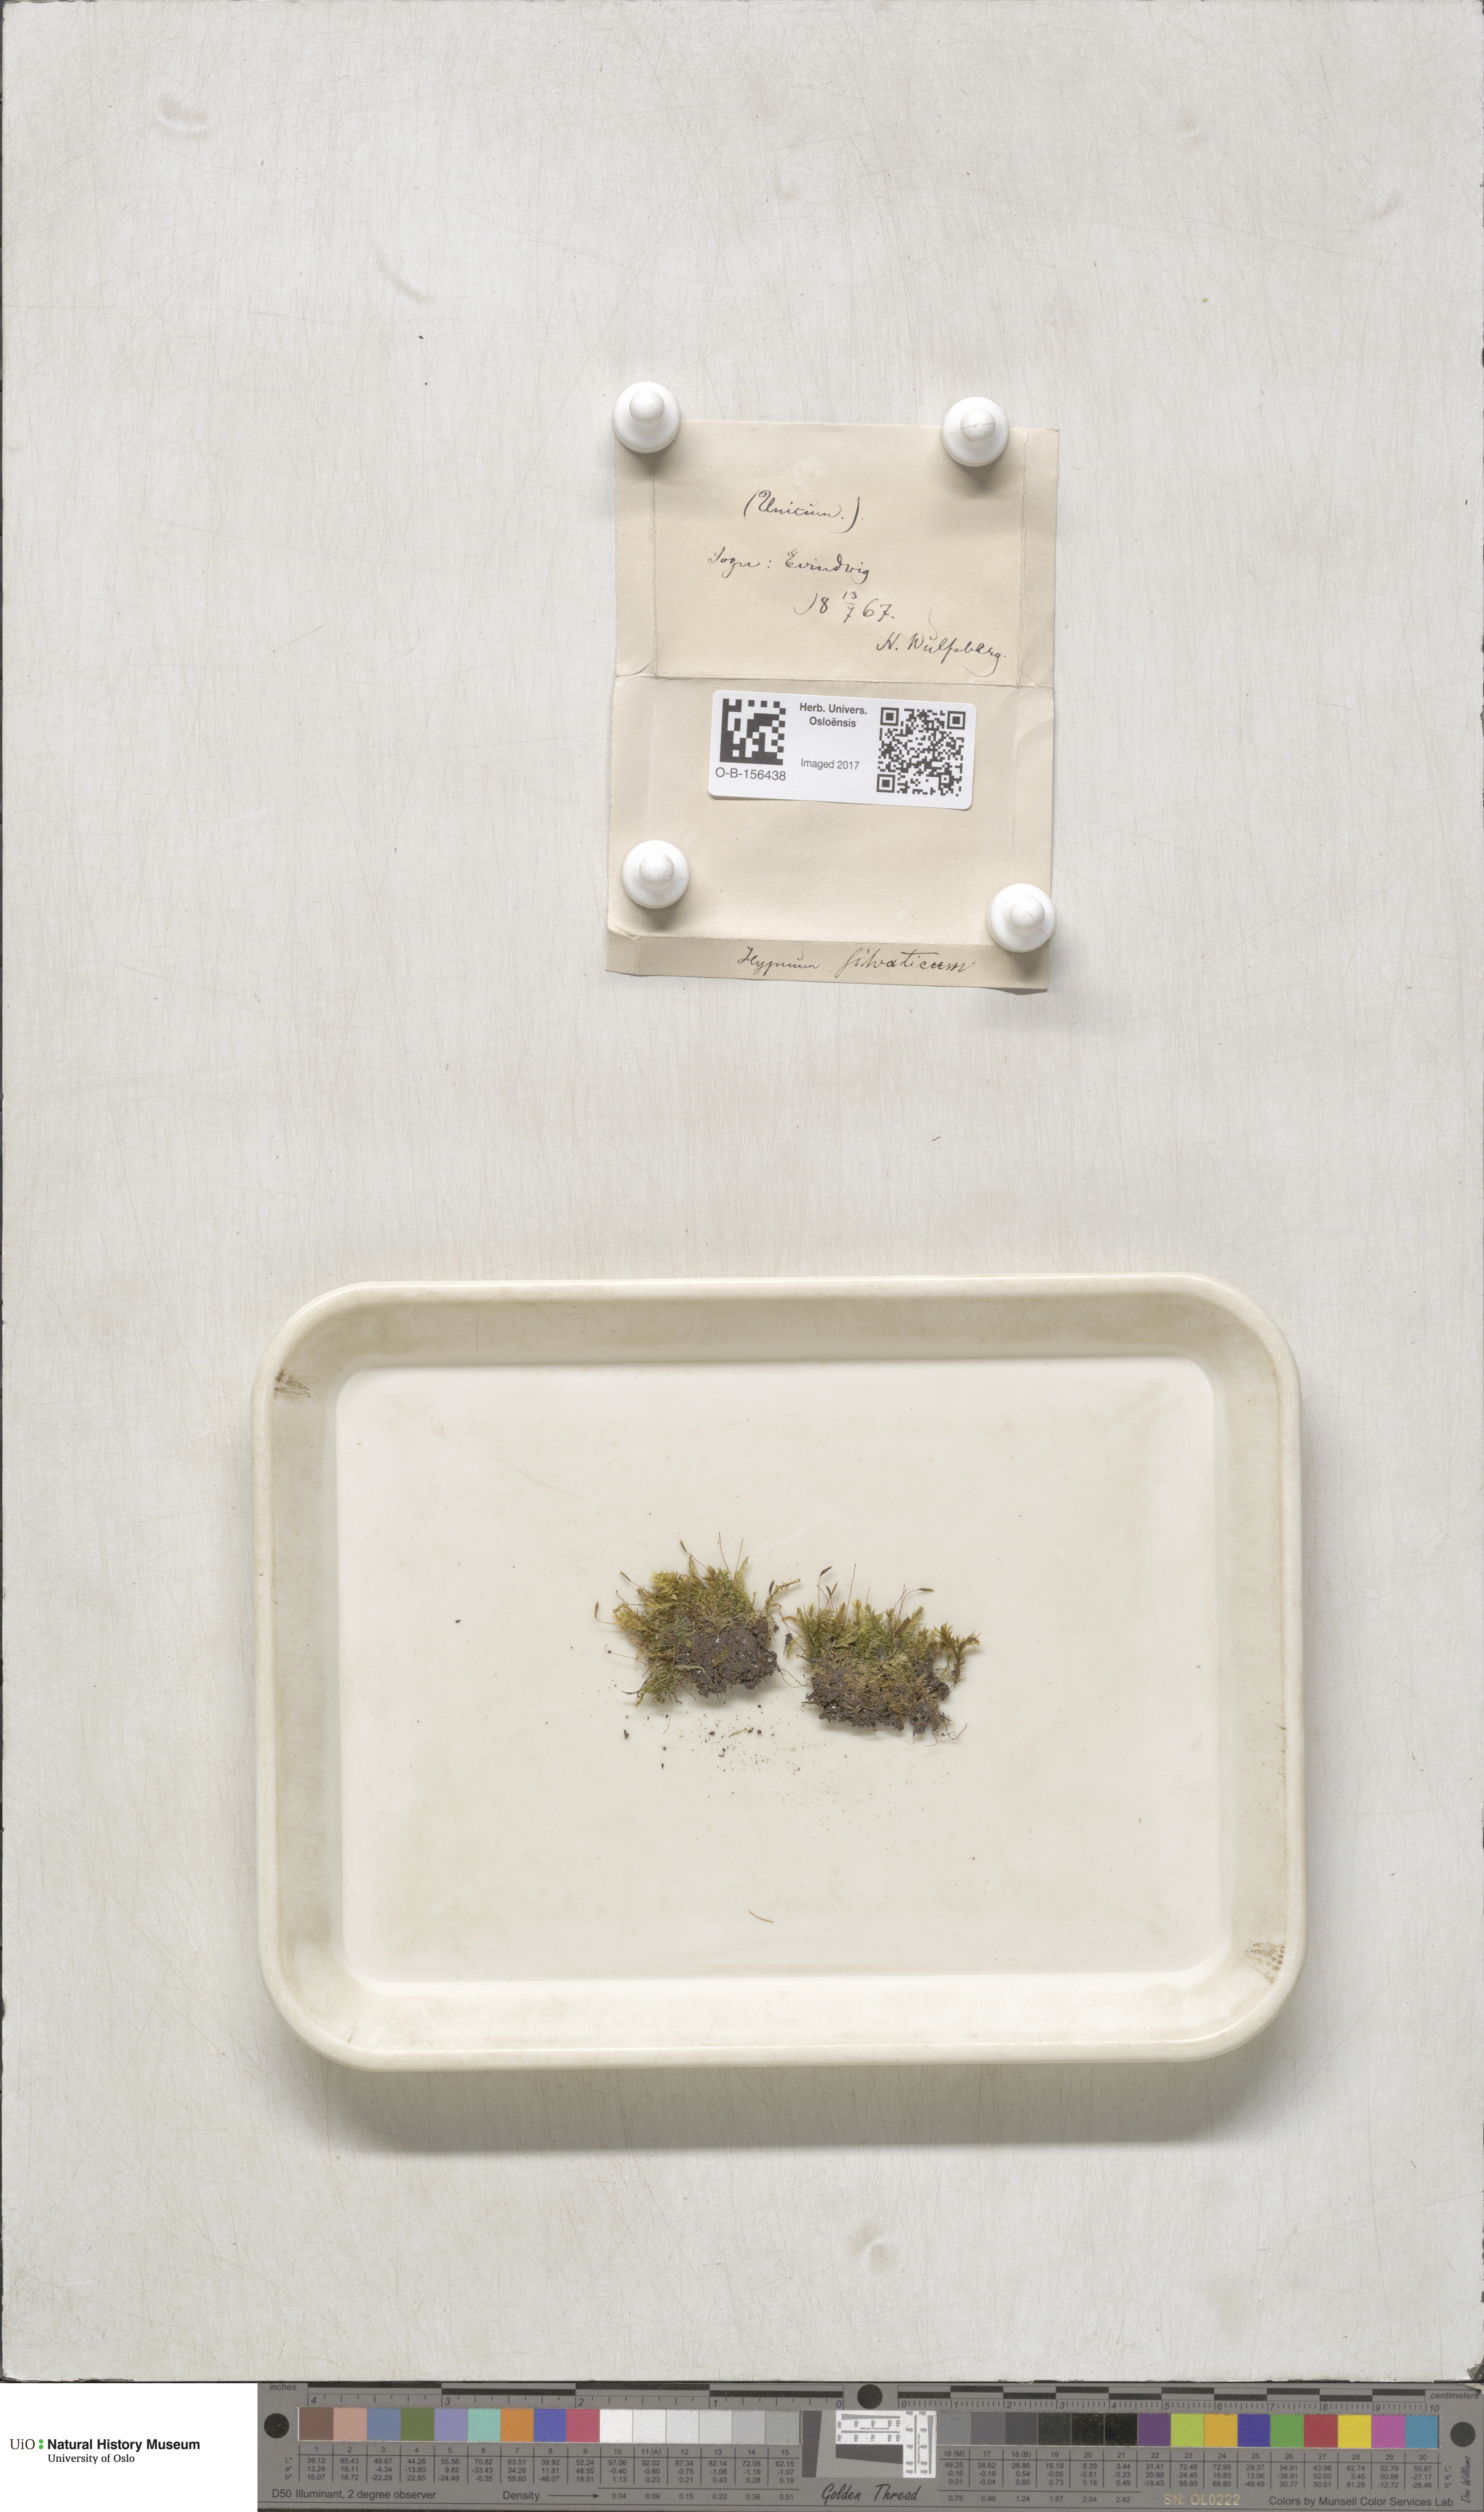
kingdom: Plantae
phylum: Bryophyta
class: Bryopsida
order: Hypnales
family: Plagiotheciaceae
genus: Plagiothecium
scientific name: Plagiothecium nemorale
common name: Woodsy silk-moss
